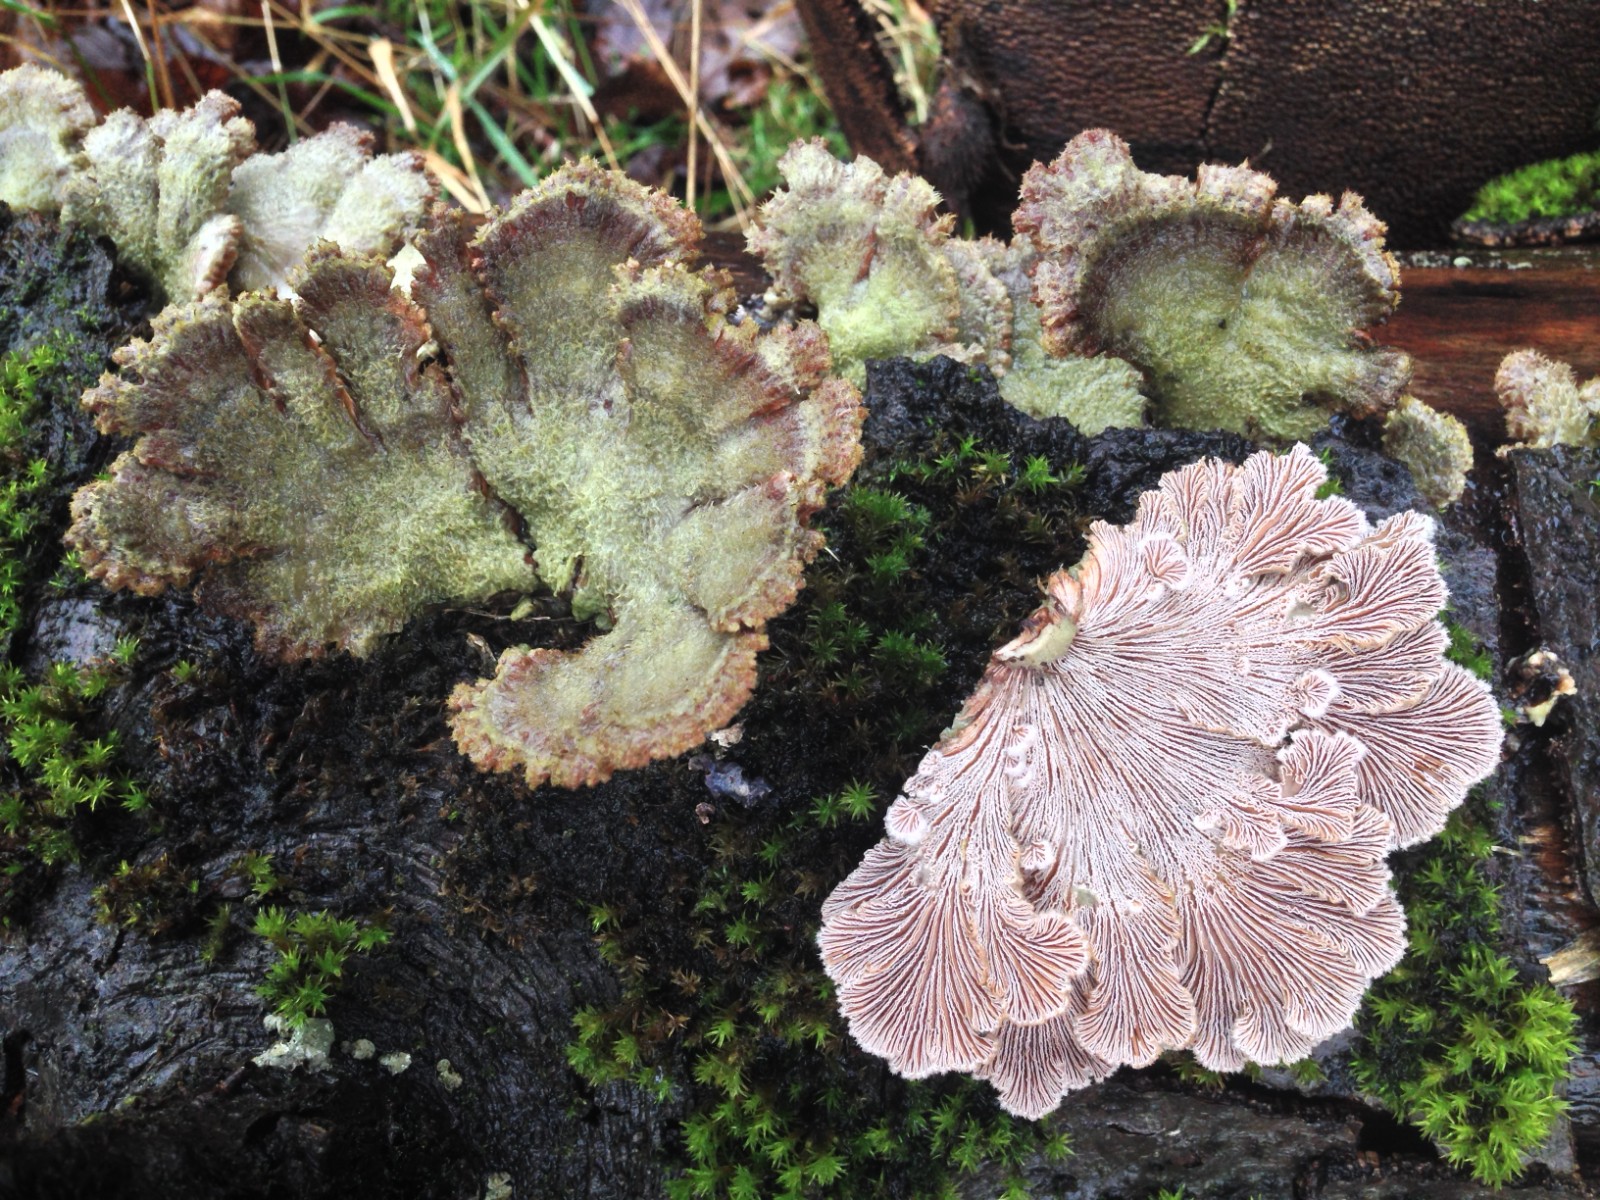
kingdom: Fungi
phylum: Basidiomycota
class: Agaricomycetes
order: Agaricales
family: Schizophyllaceae
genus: Schizophyllum
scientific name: Schizophyllum commune
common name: kløvblad
